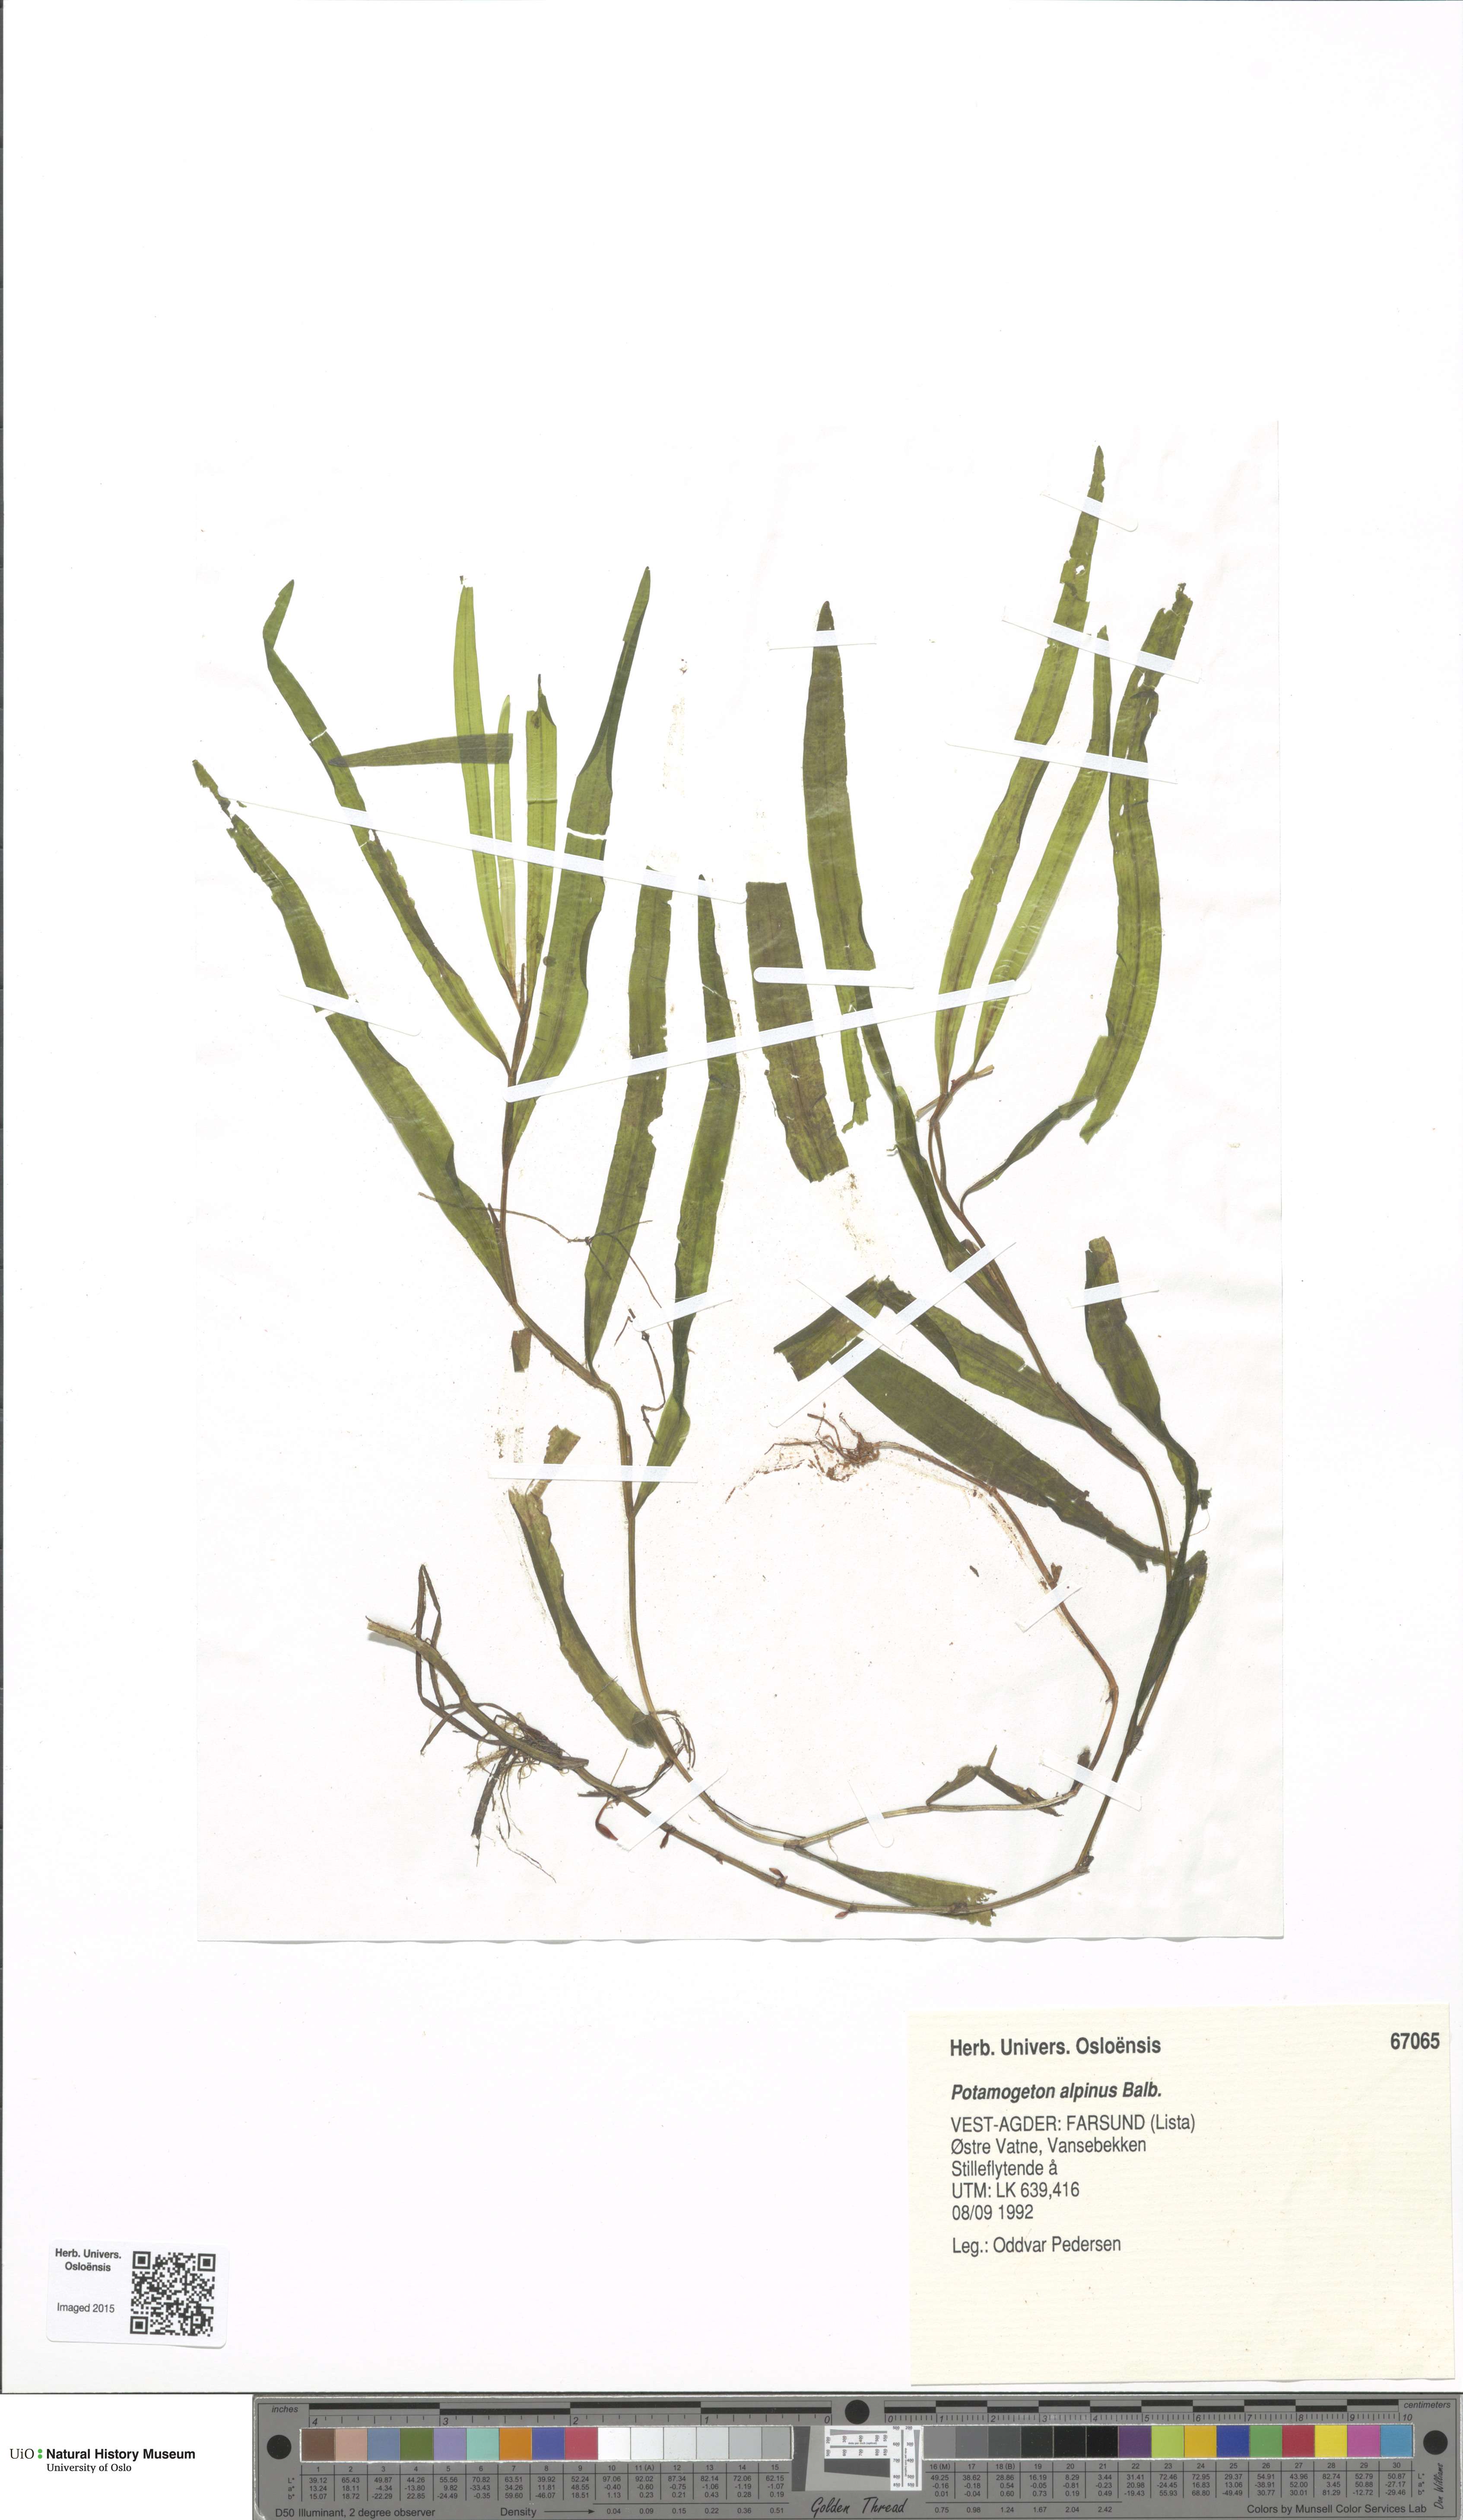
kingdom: Plantae
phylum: Tracheophyta
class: Liliopsida
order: Alismatales
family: Potamogetonaceae
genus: Potamogeton
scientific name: Potamogeton alpinus
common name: Red pondweed
